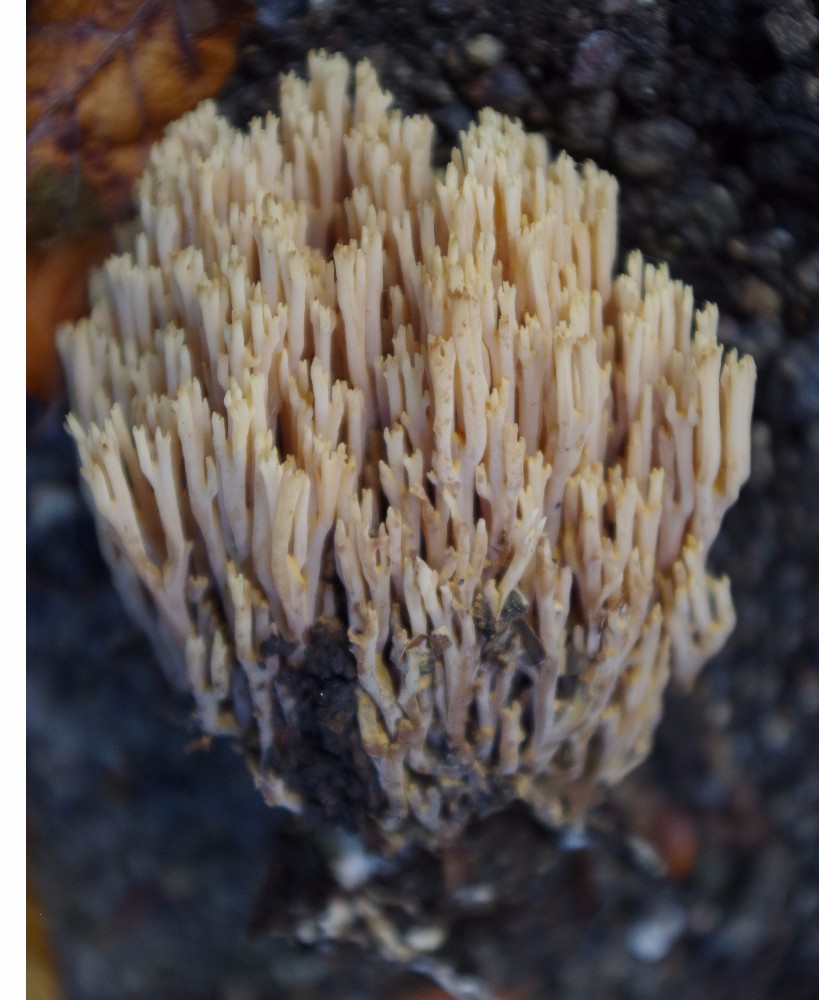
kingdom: Fungi
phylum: Basidiomycota
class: Agaricomycetes
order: Gomphales
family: Gomphaceae
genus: Ramaria
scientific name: Ramaria stricta
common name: rank koralsvamp
